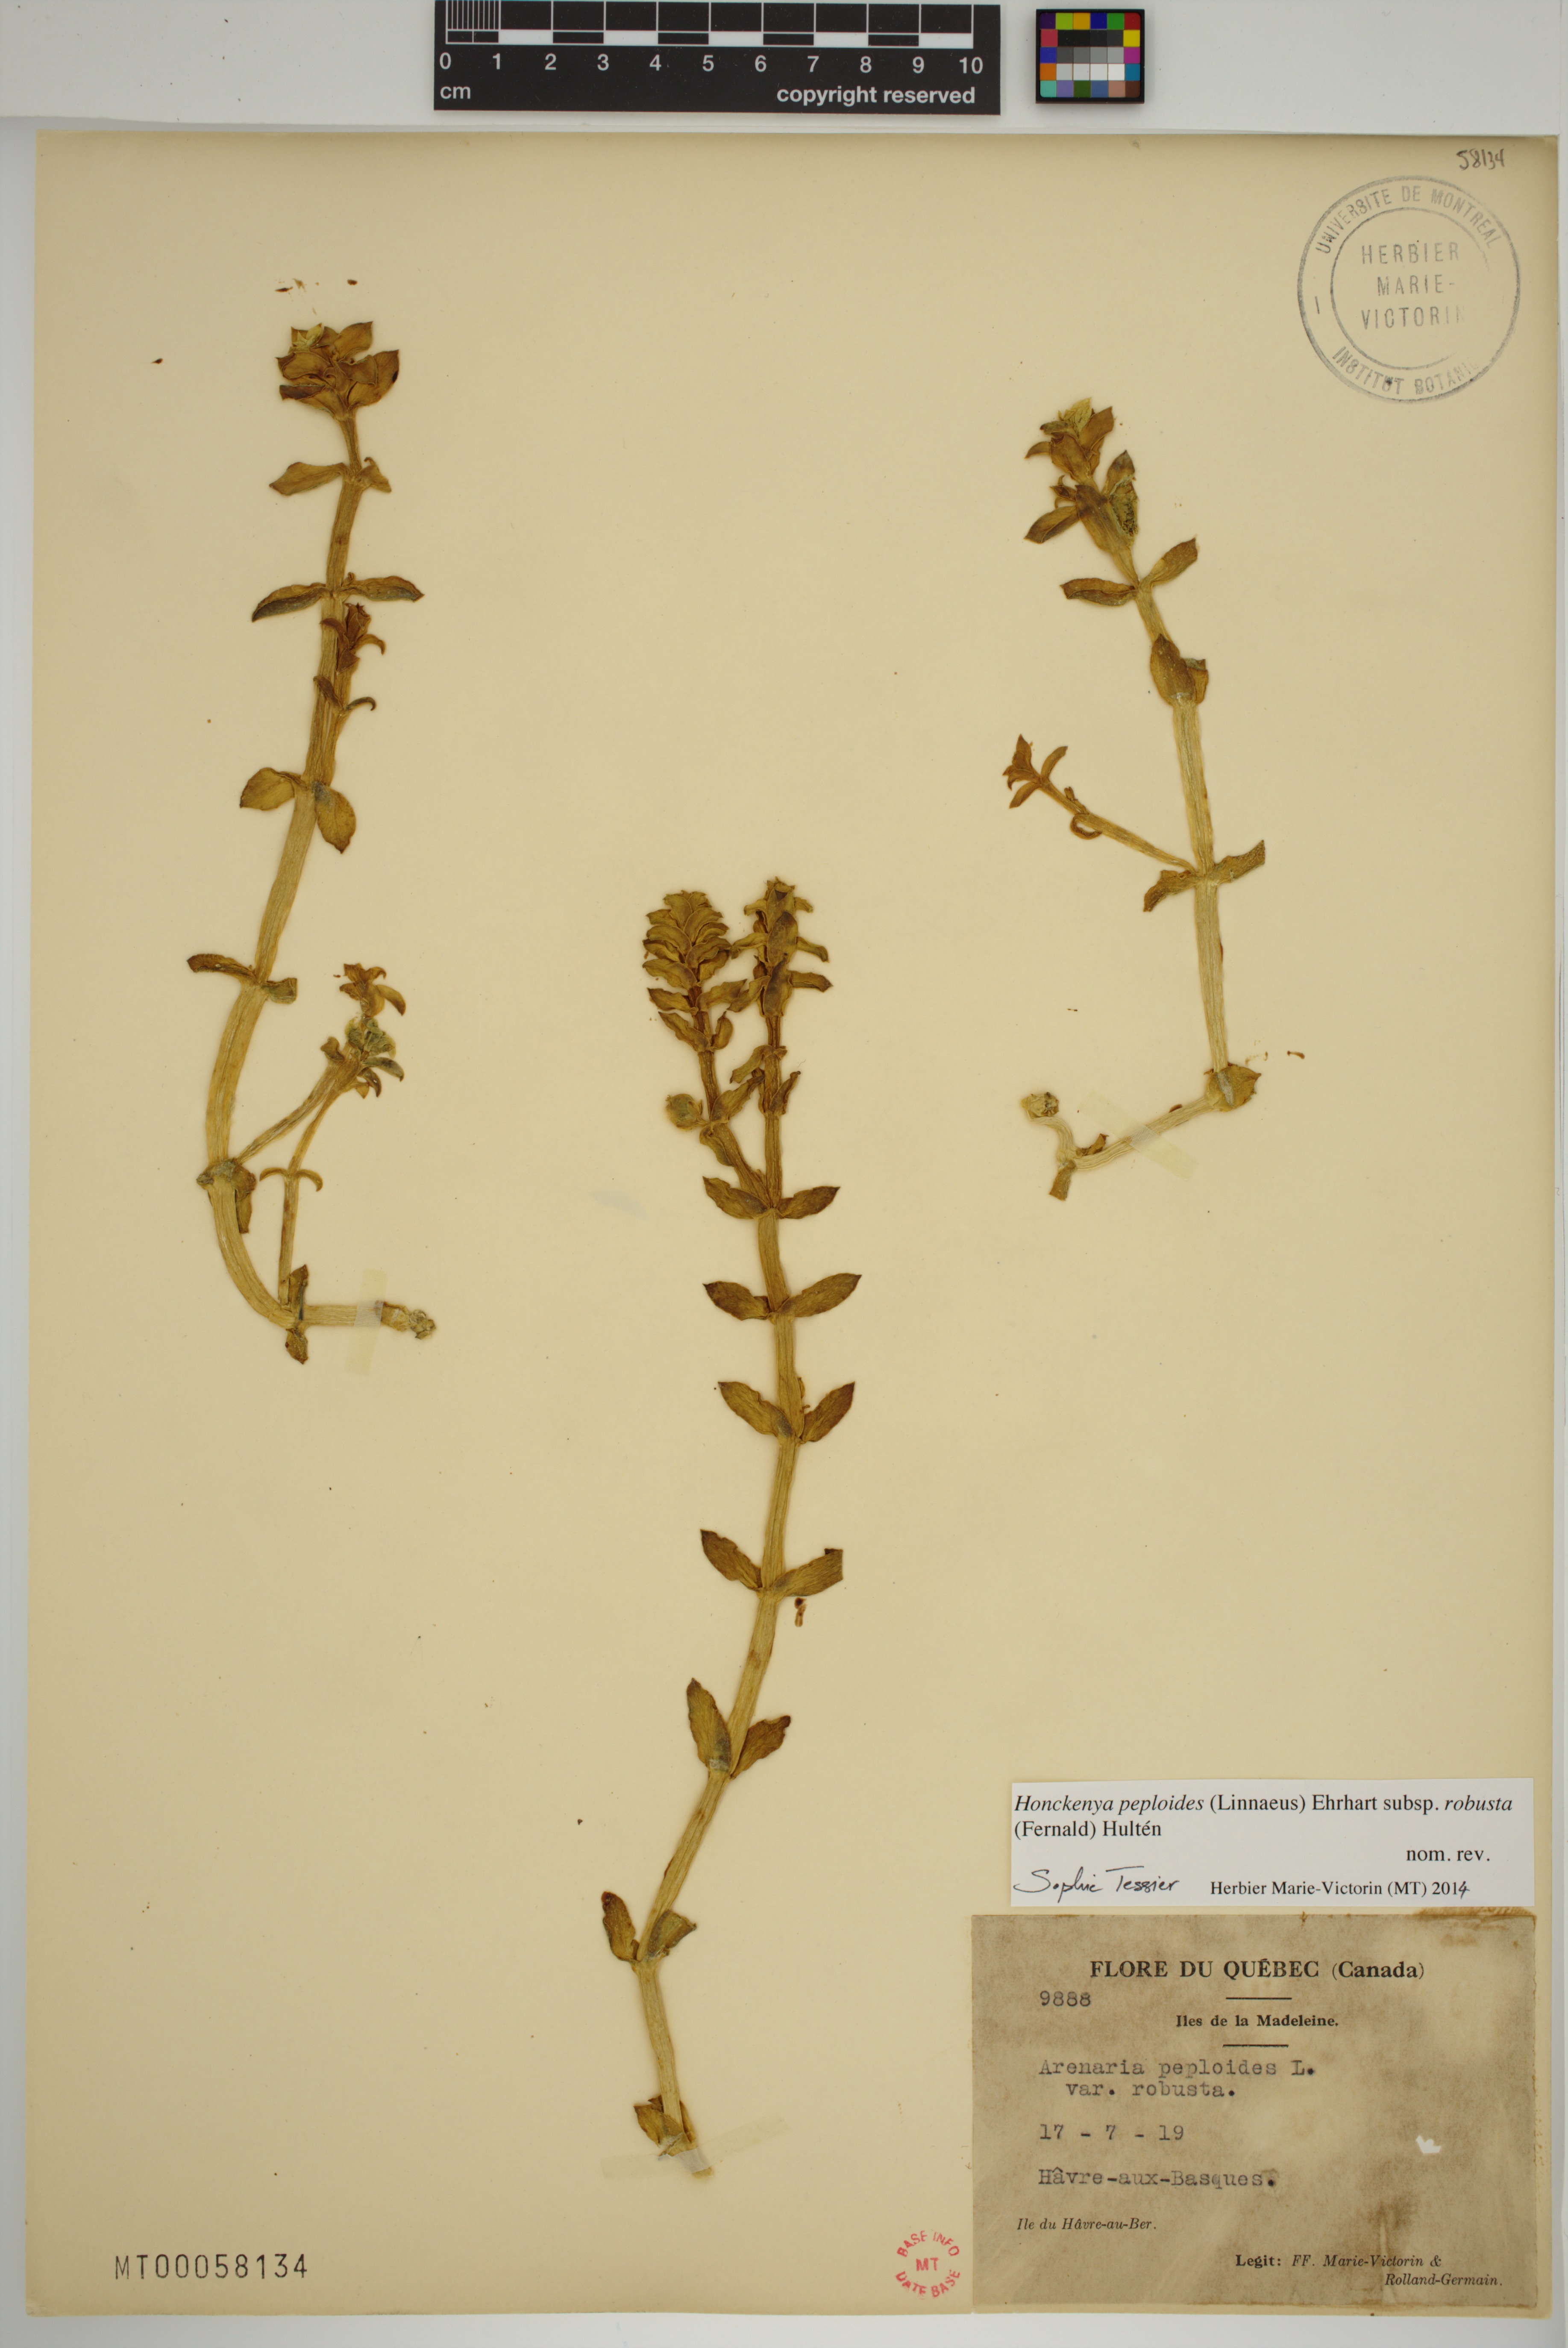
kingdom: Plantae
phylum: Tracheophyta
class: Magnoliopsida
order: Caryophyllales
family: Caryophyllaceae
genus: Honckenya
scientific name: Honckenya peploides
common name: Sea sandwort
